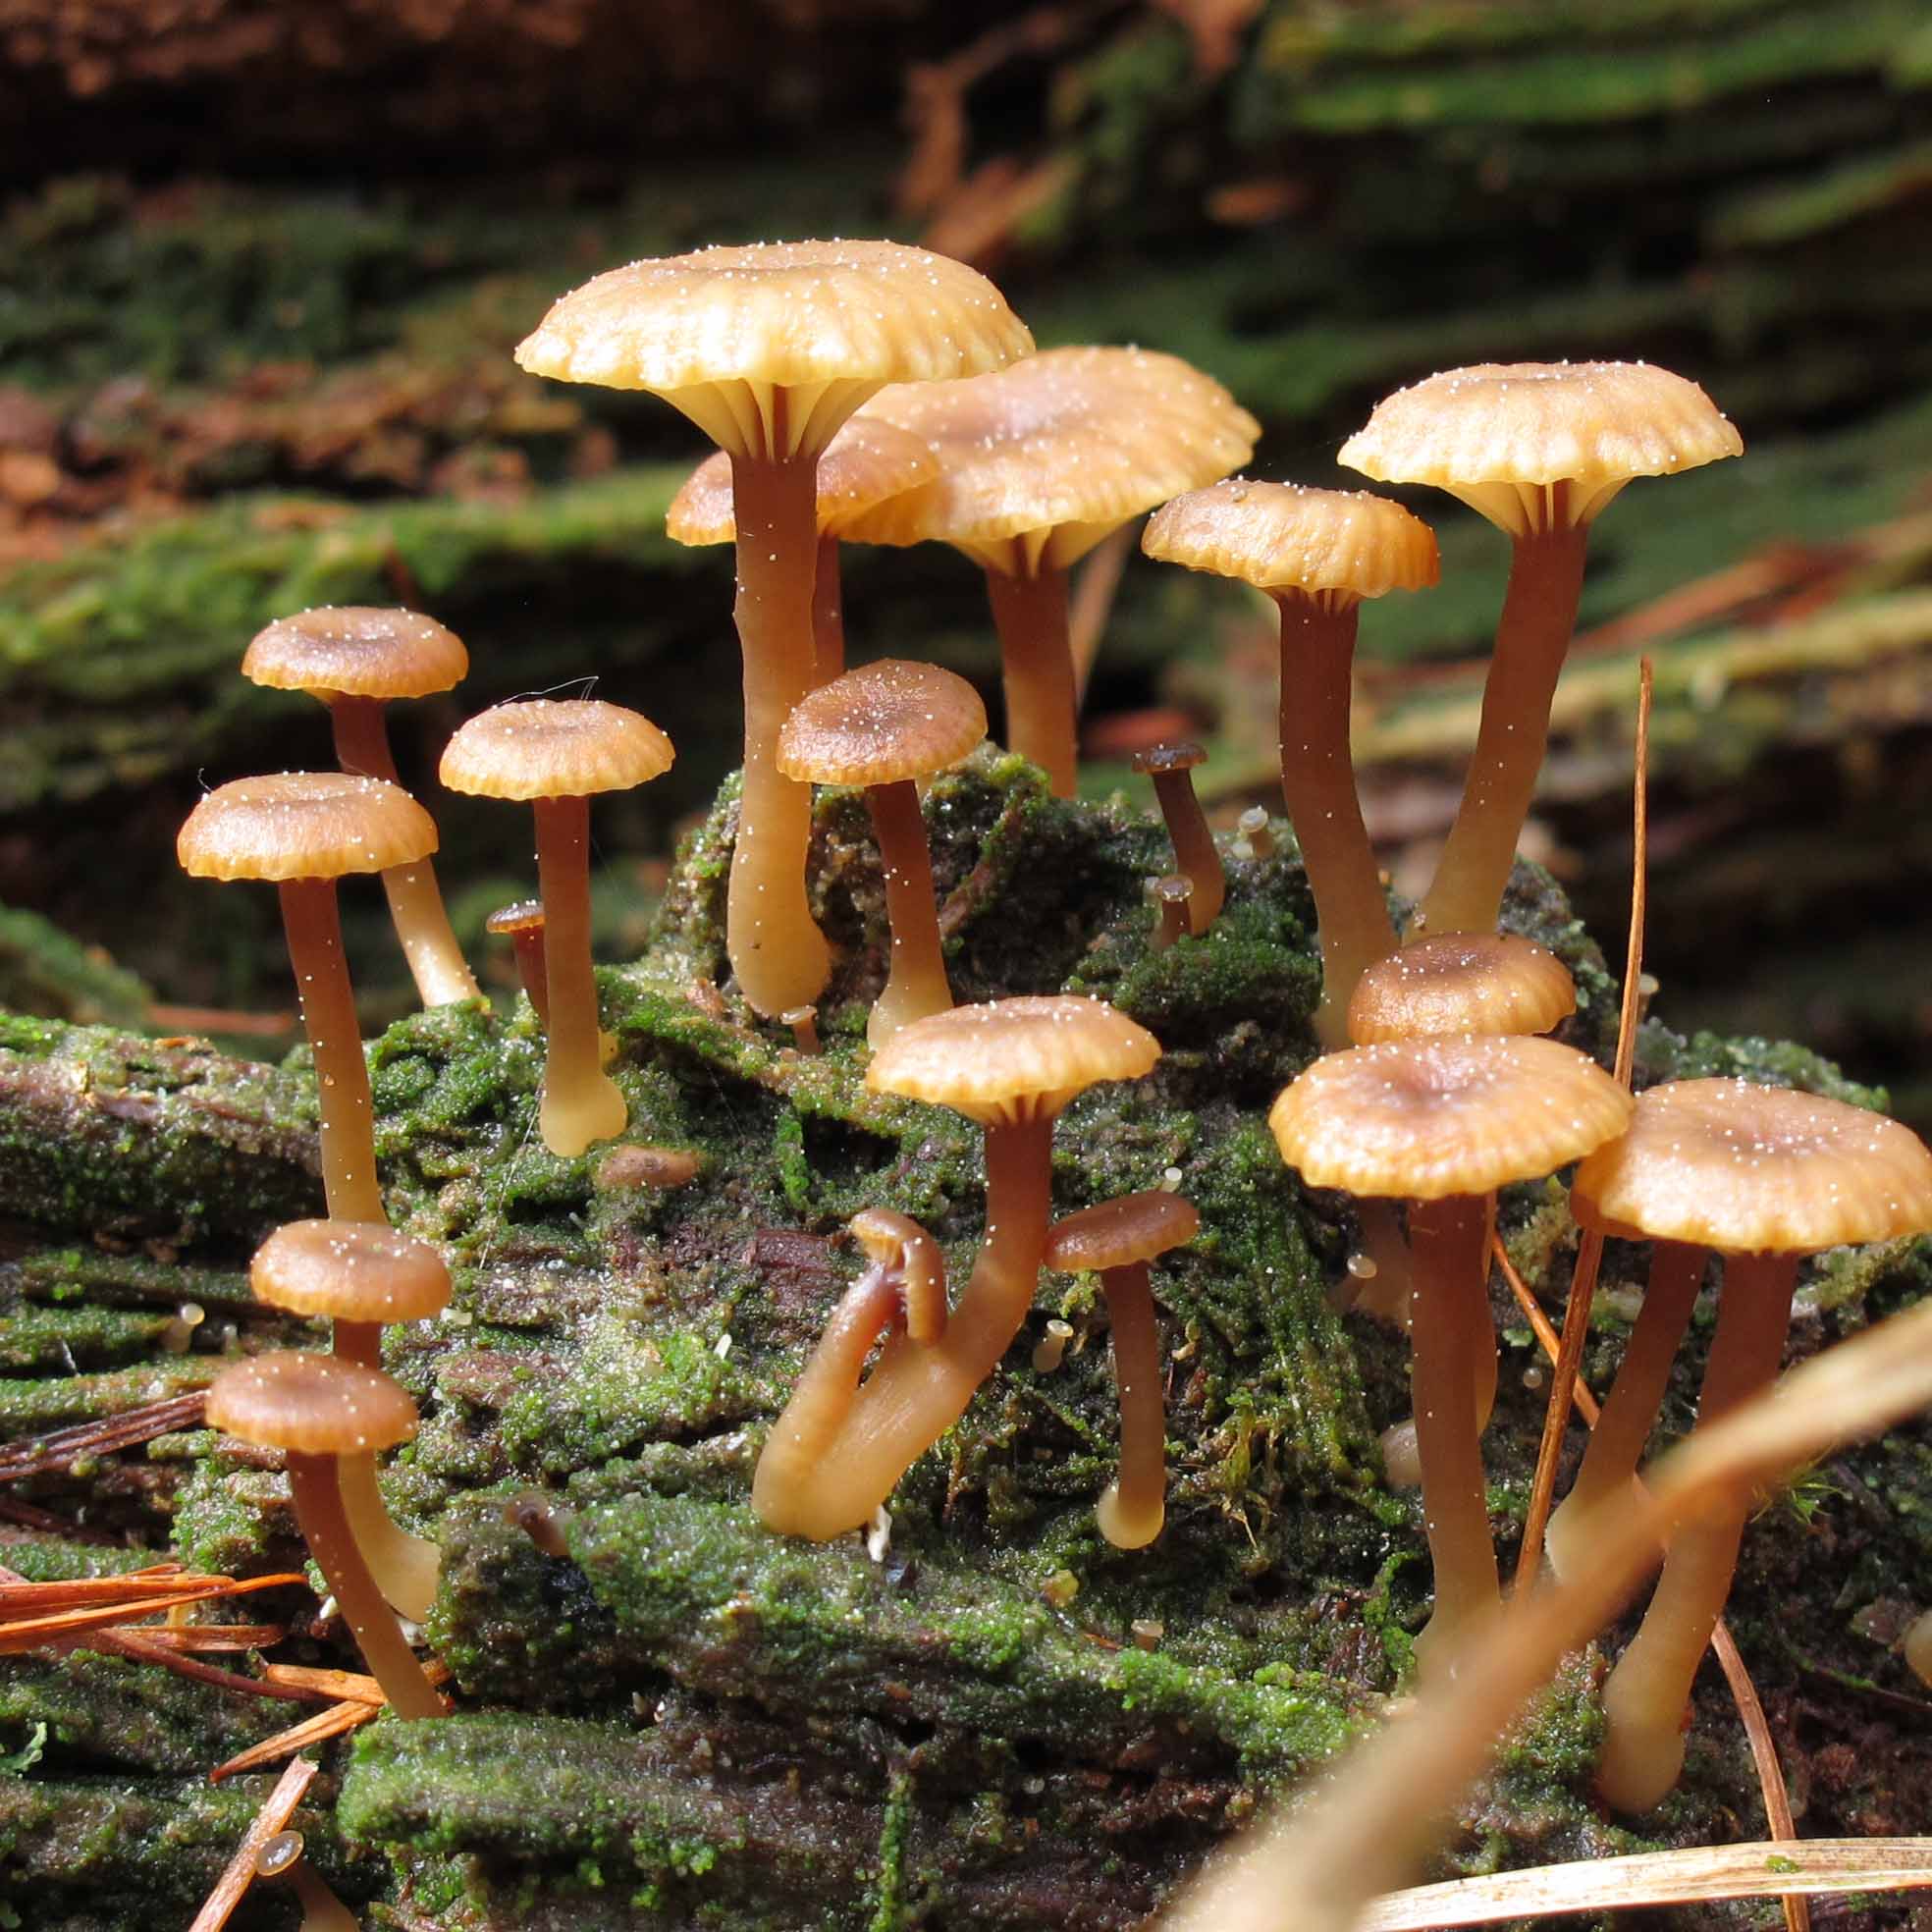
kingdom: Fungi
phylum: Basidiomycota
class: Agaricomycetes
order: Agaricales
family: Hygrophoraceae
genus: Lichenomphalia
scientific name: Lichenomphalia umbellifera
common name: tørve-lavhat
